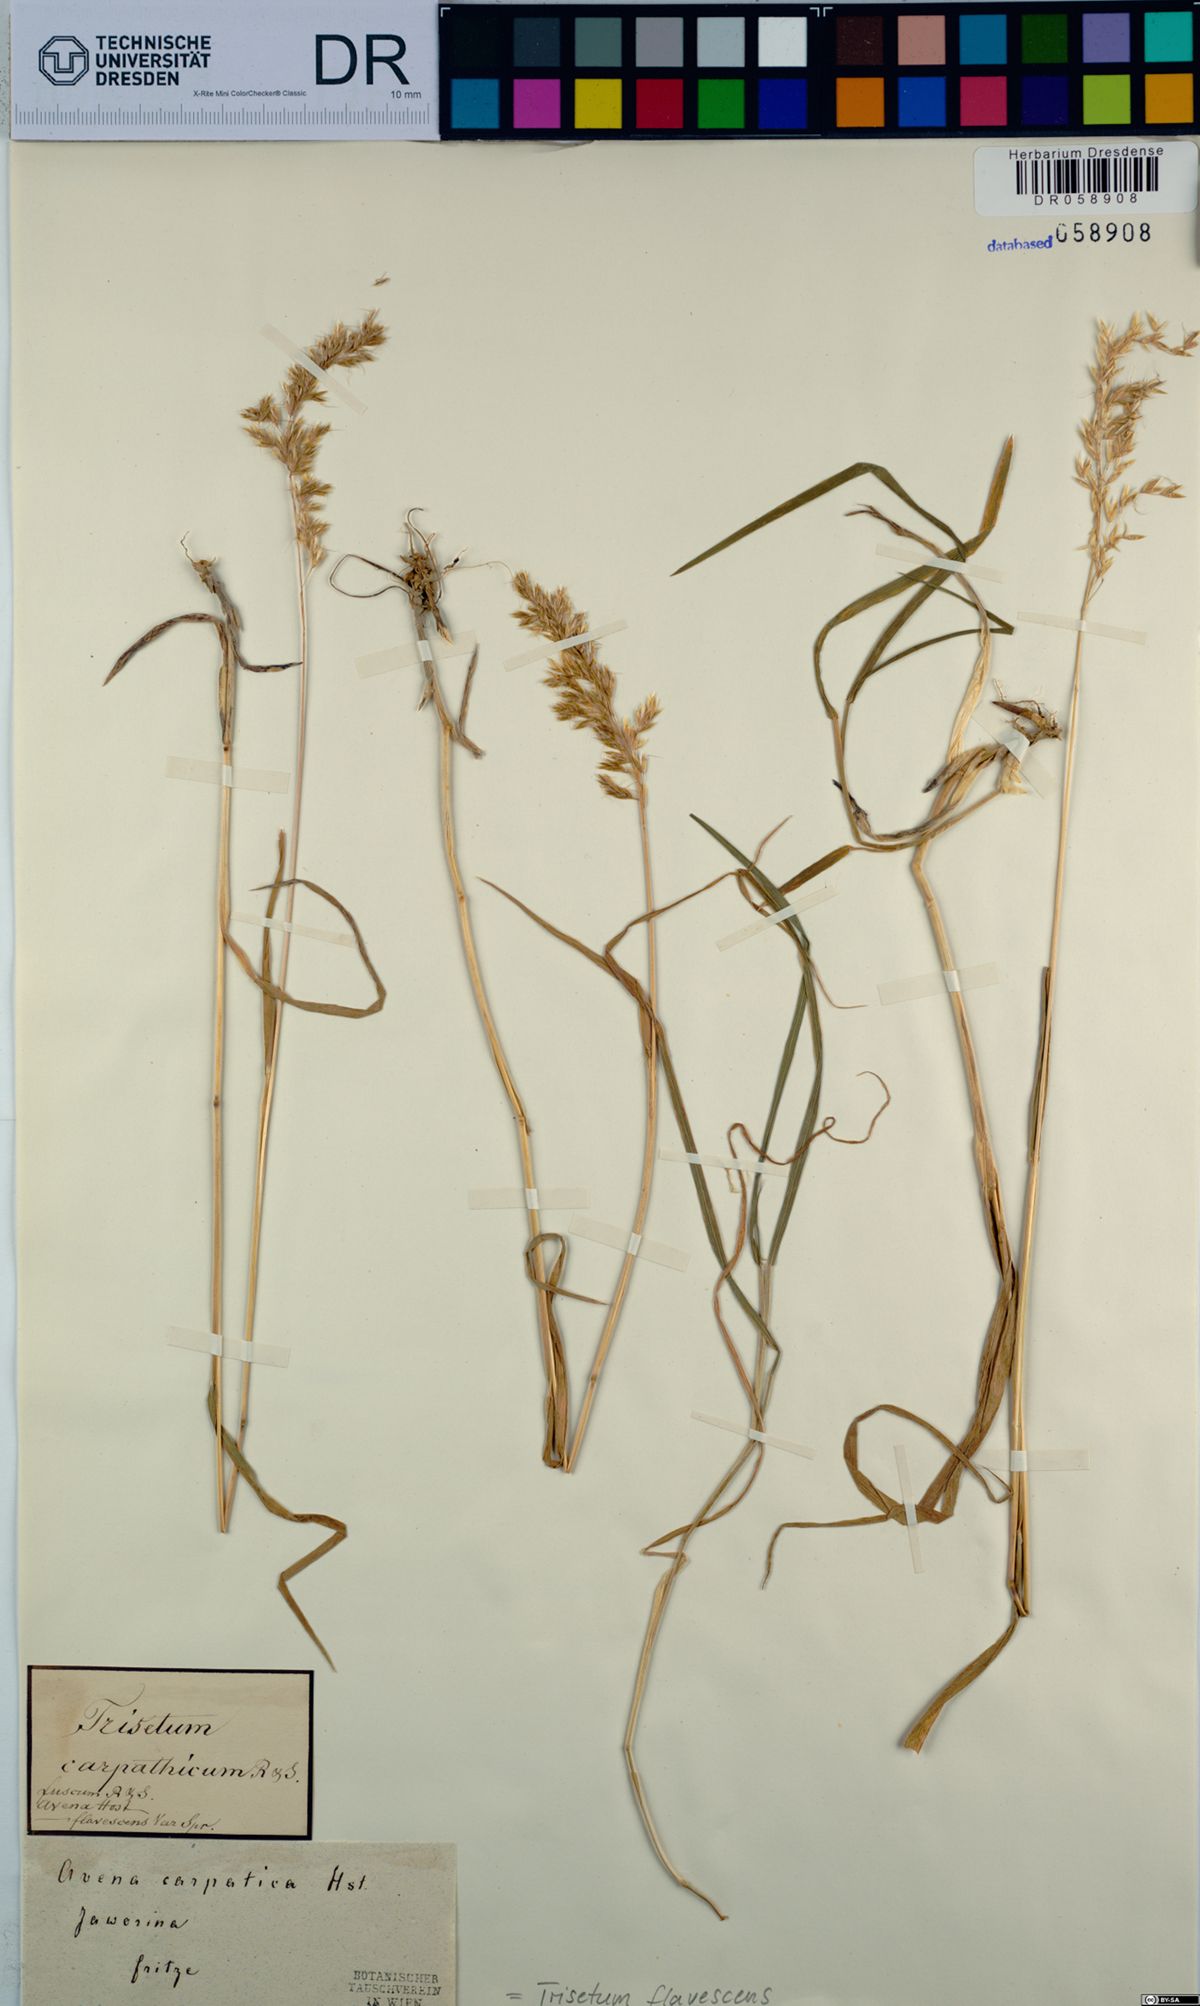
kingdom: Plantae
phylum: Tracheophyta
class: Liliopsida
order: Poales
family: Poaceae
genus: Trisetum
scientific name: Trisetum flavescens
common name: Yellow oat-grass
